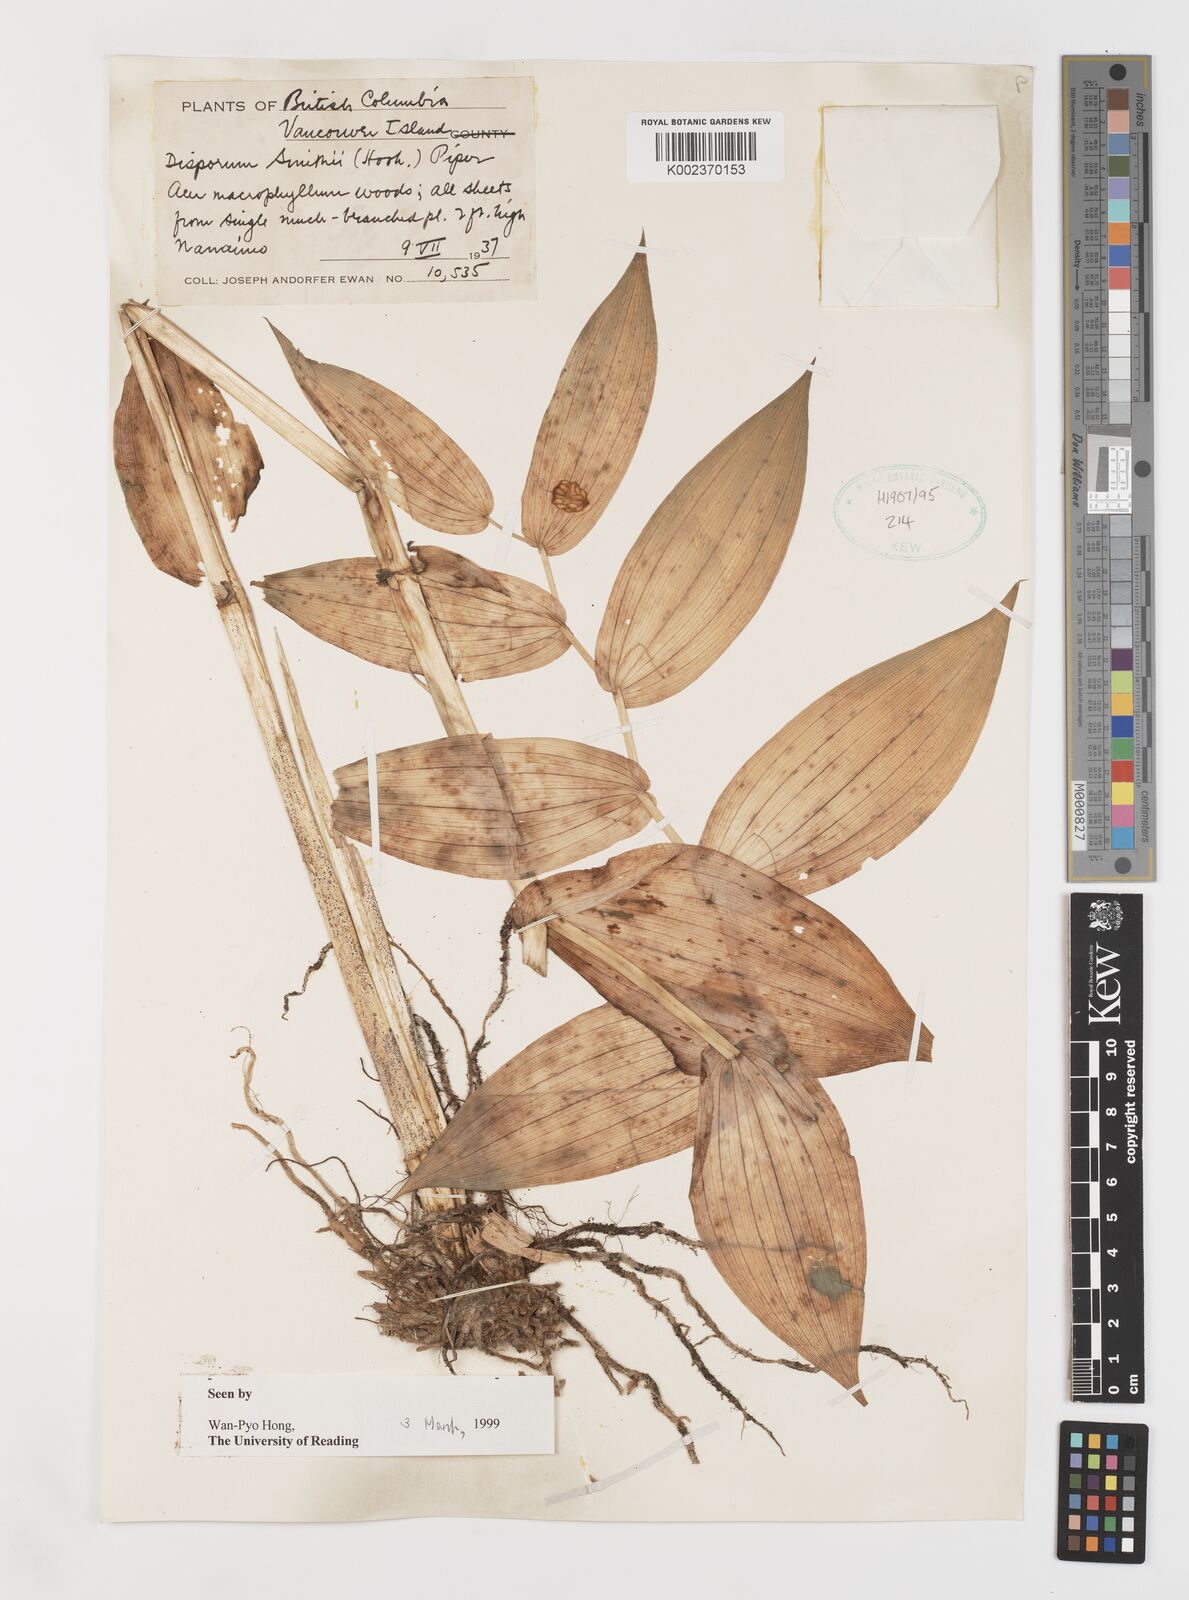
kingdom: Plantae
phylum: Tracheophyta
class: Liliopsida
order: Liliales
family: Liliaceae
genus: Prosartes
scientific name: Prosartes smithii
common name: Fairy-lantern
